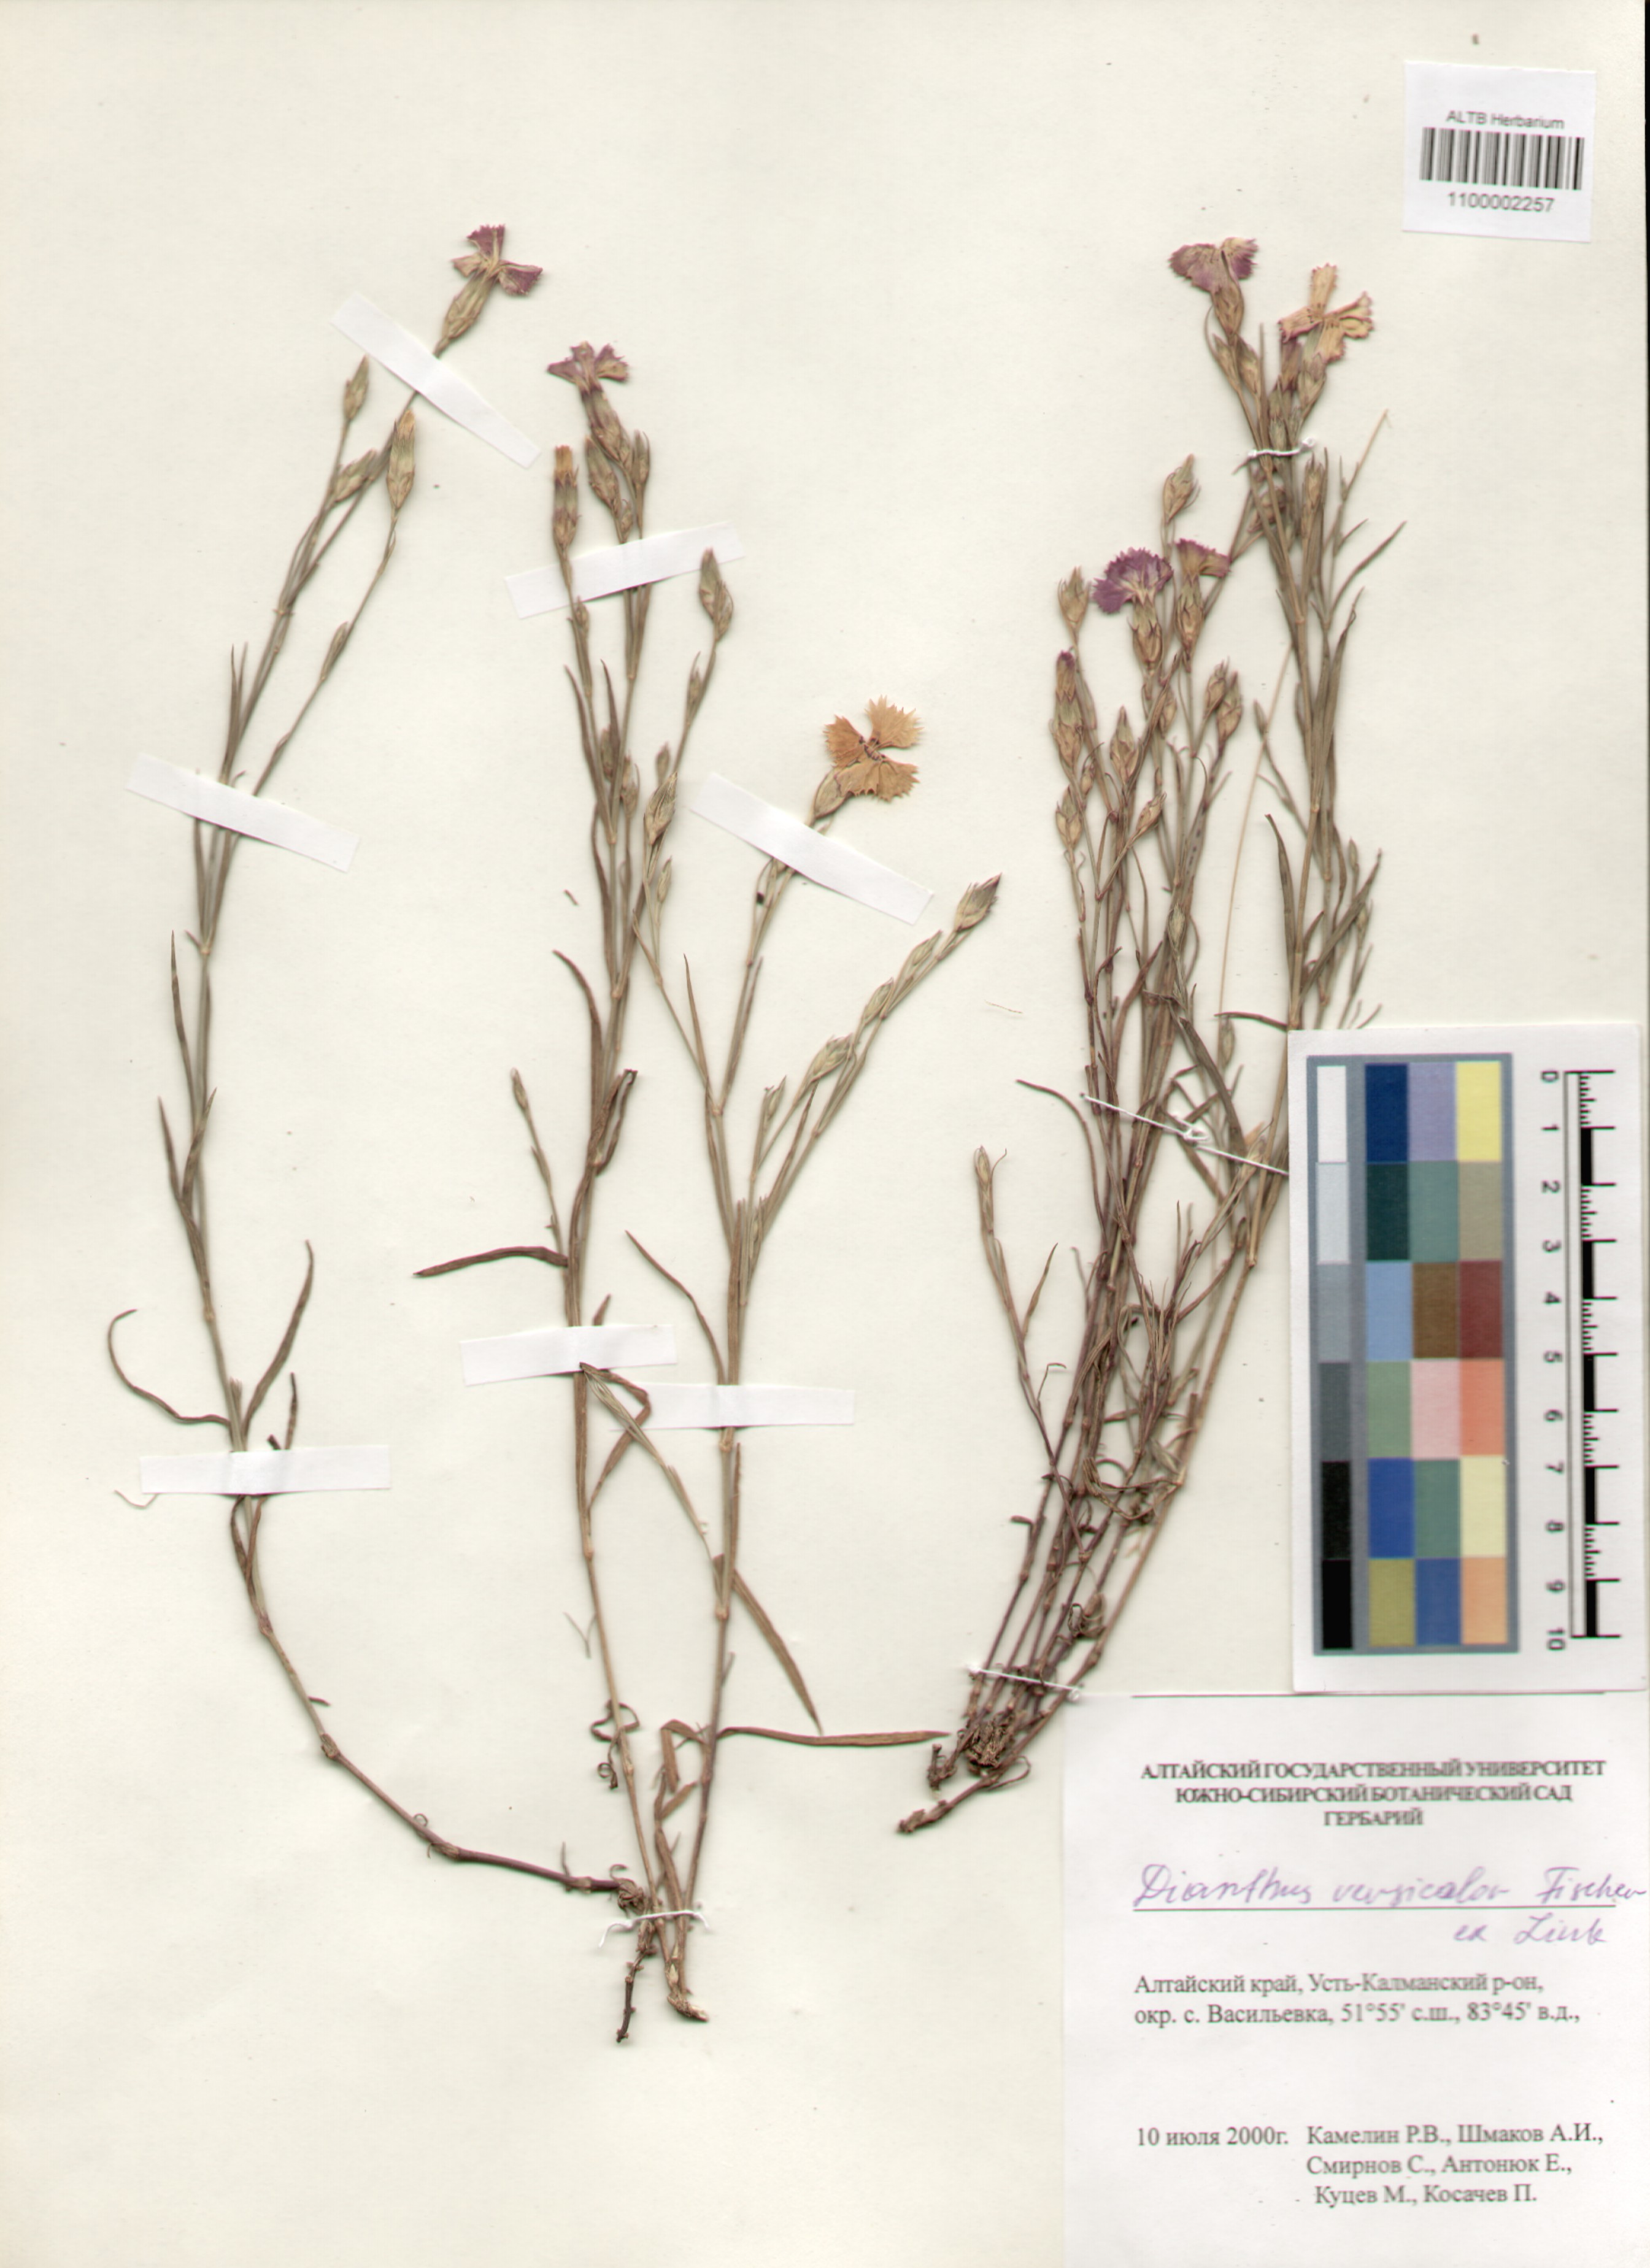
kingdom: Plantae
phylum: Tracheophyta
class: Magnoliopsida
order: Caryophyllales
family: Caryophyllaceae
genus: Dianthus
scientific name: Dianthus chinensis
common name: Rainbow pink
